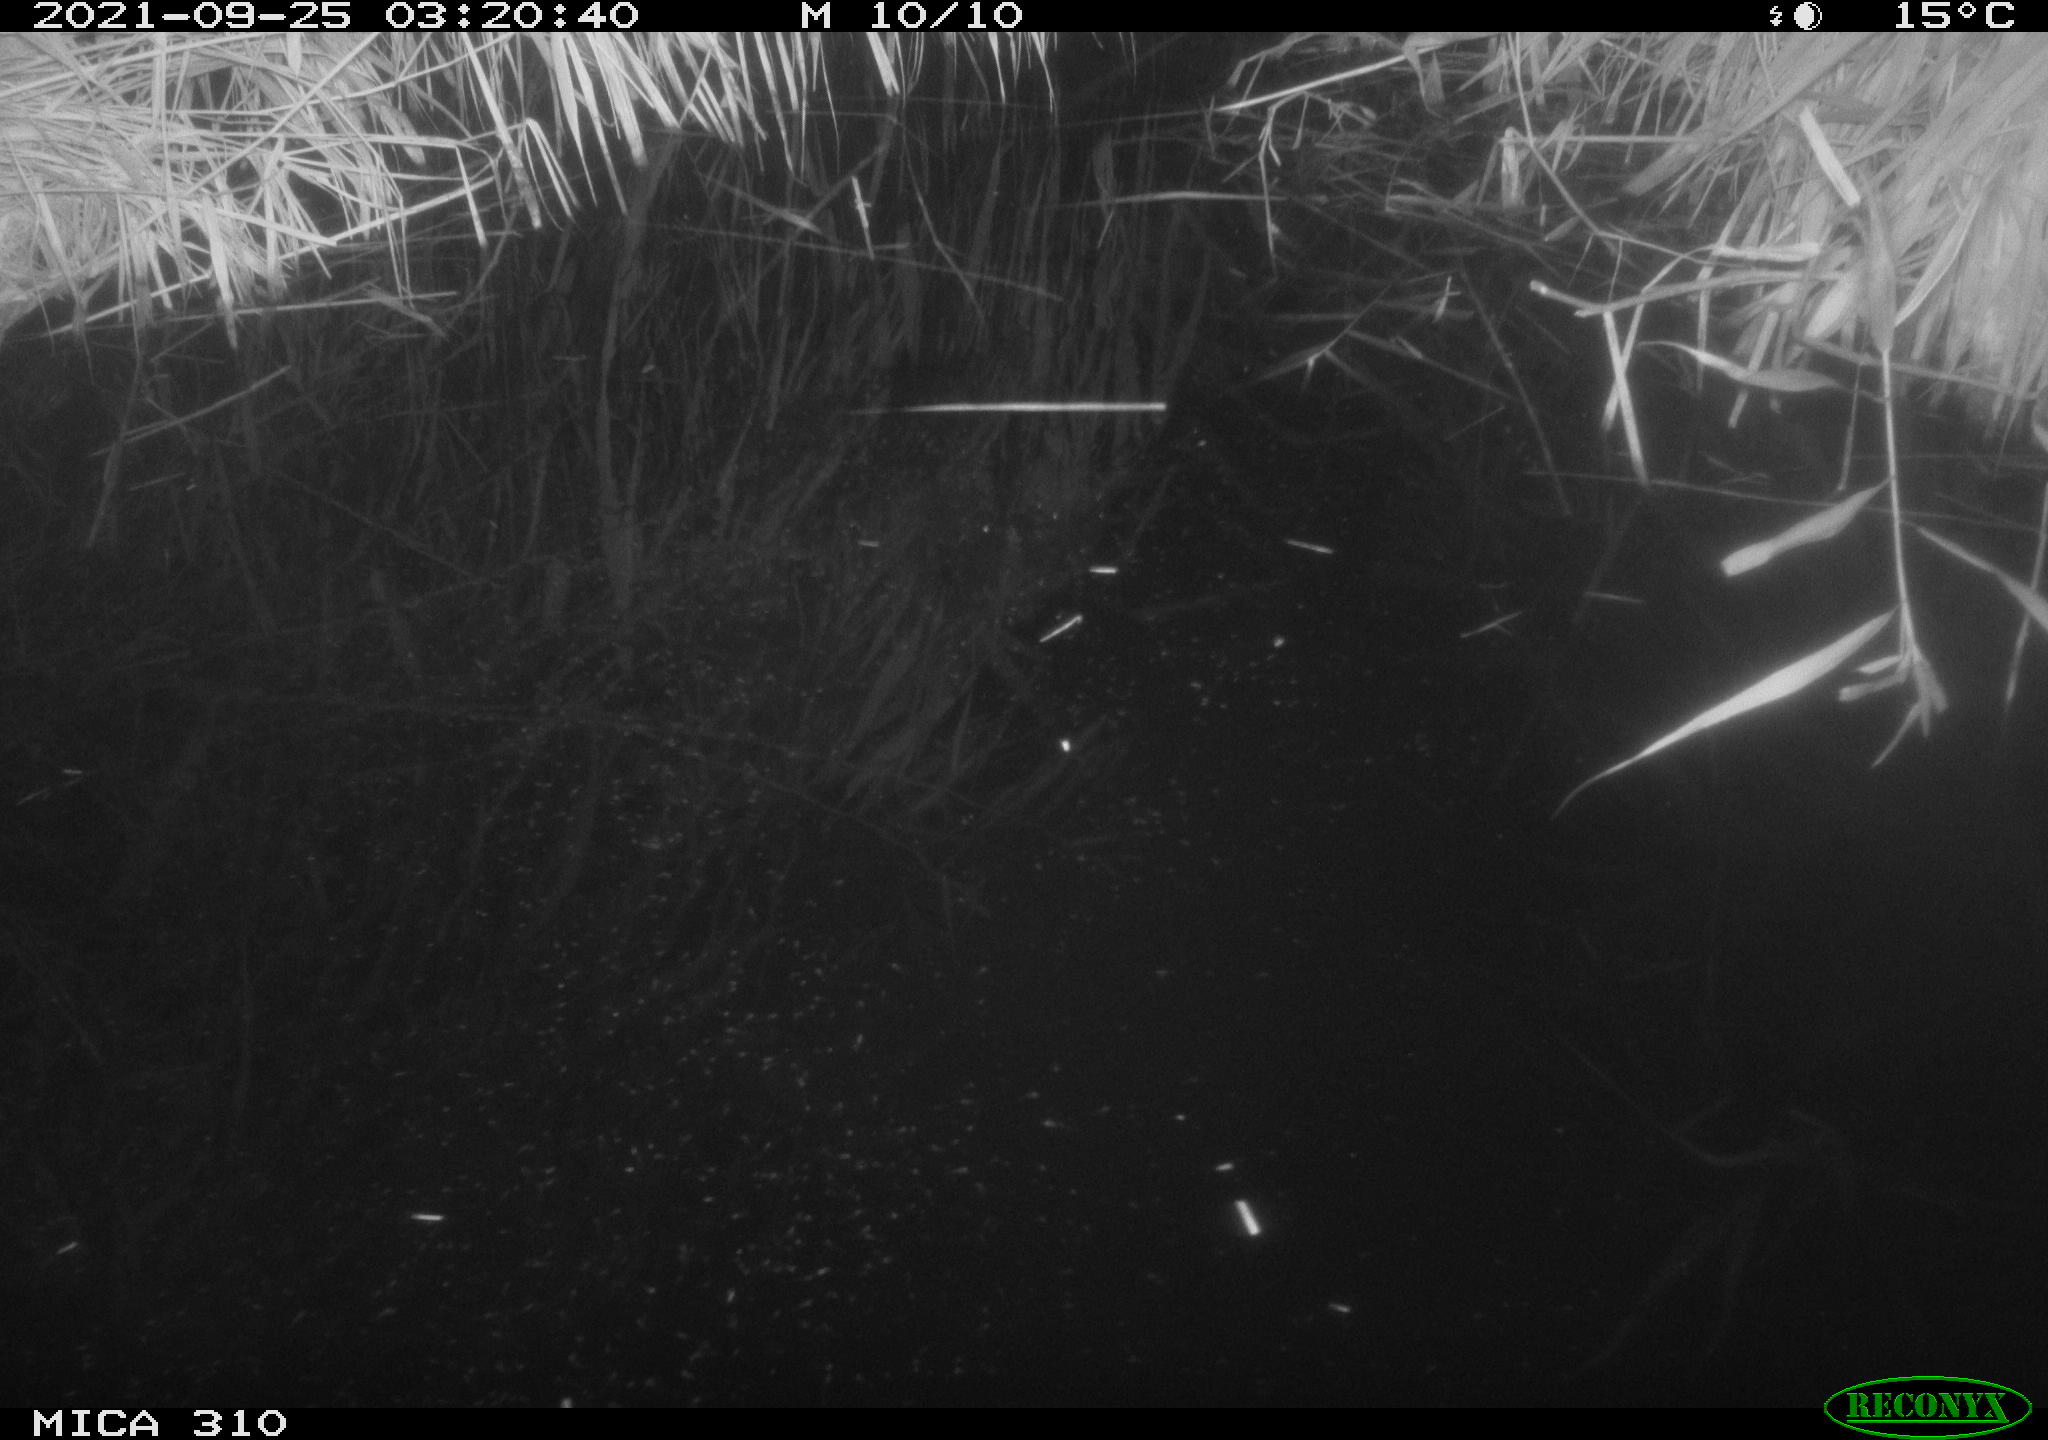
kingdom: Animalia
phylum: Chordata
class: Aves
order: Anseriformes
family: Anatidae
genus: Anas
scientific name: Anas platyrhynchos
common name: Mallard
